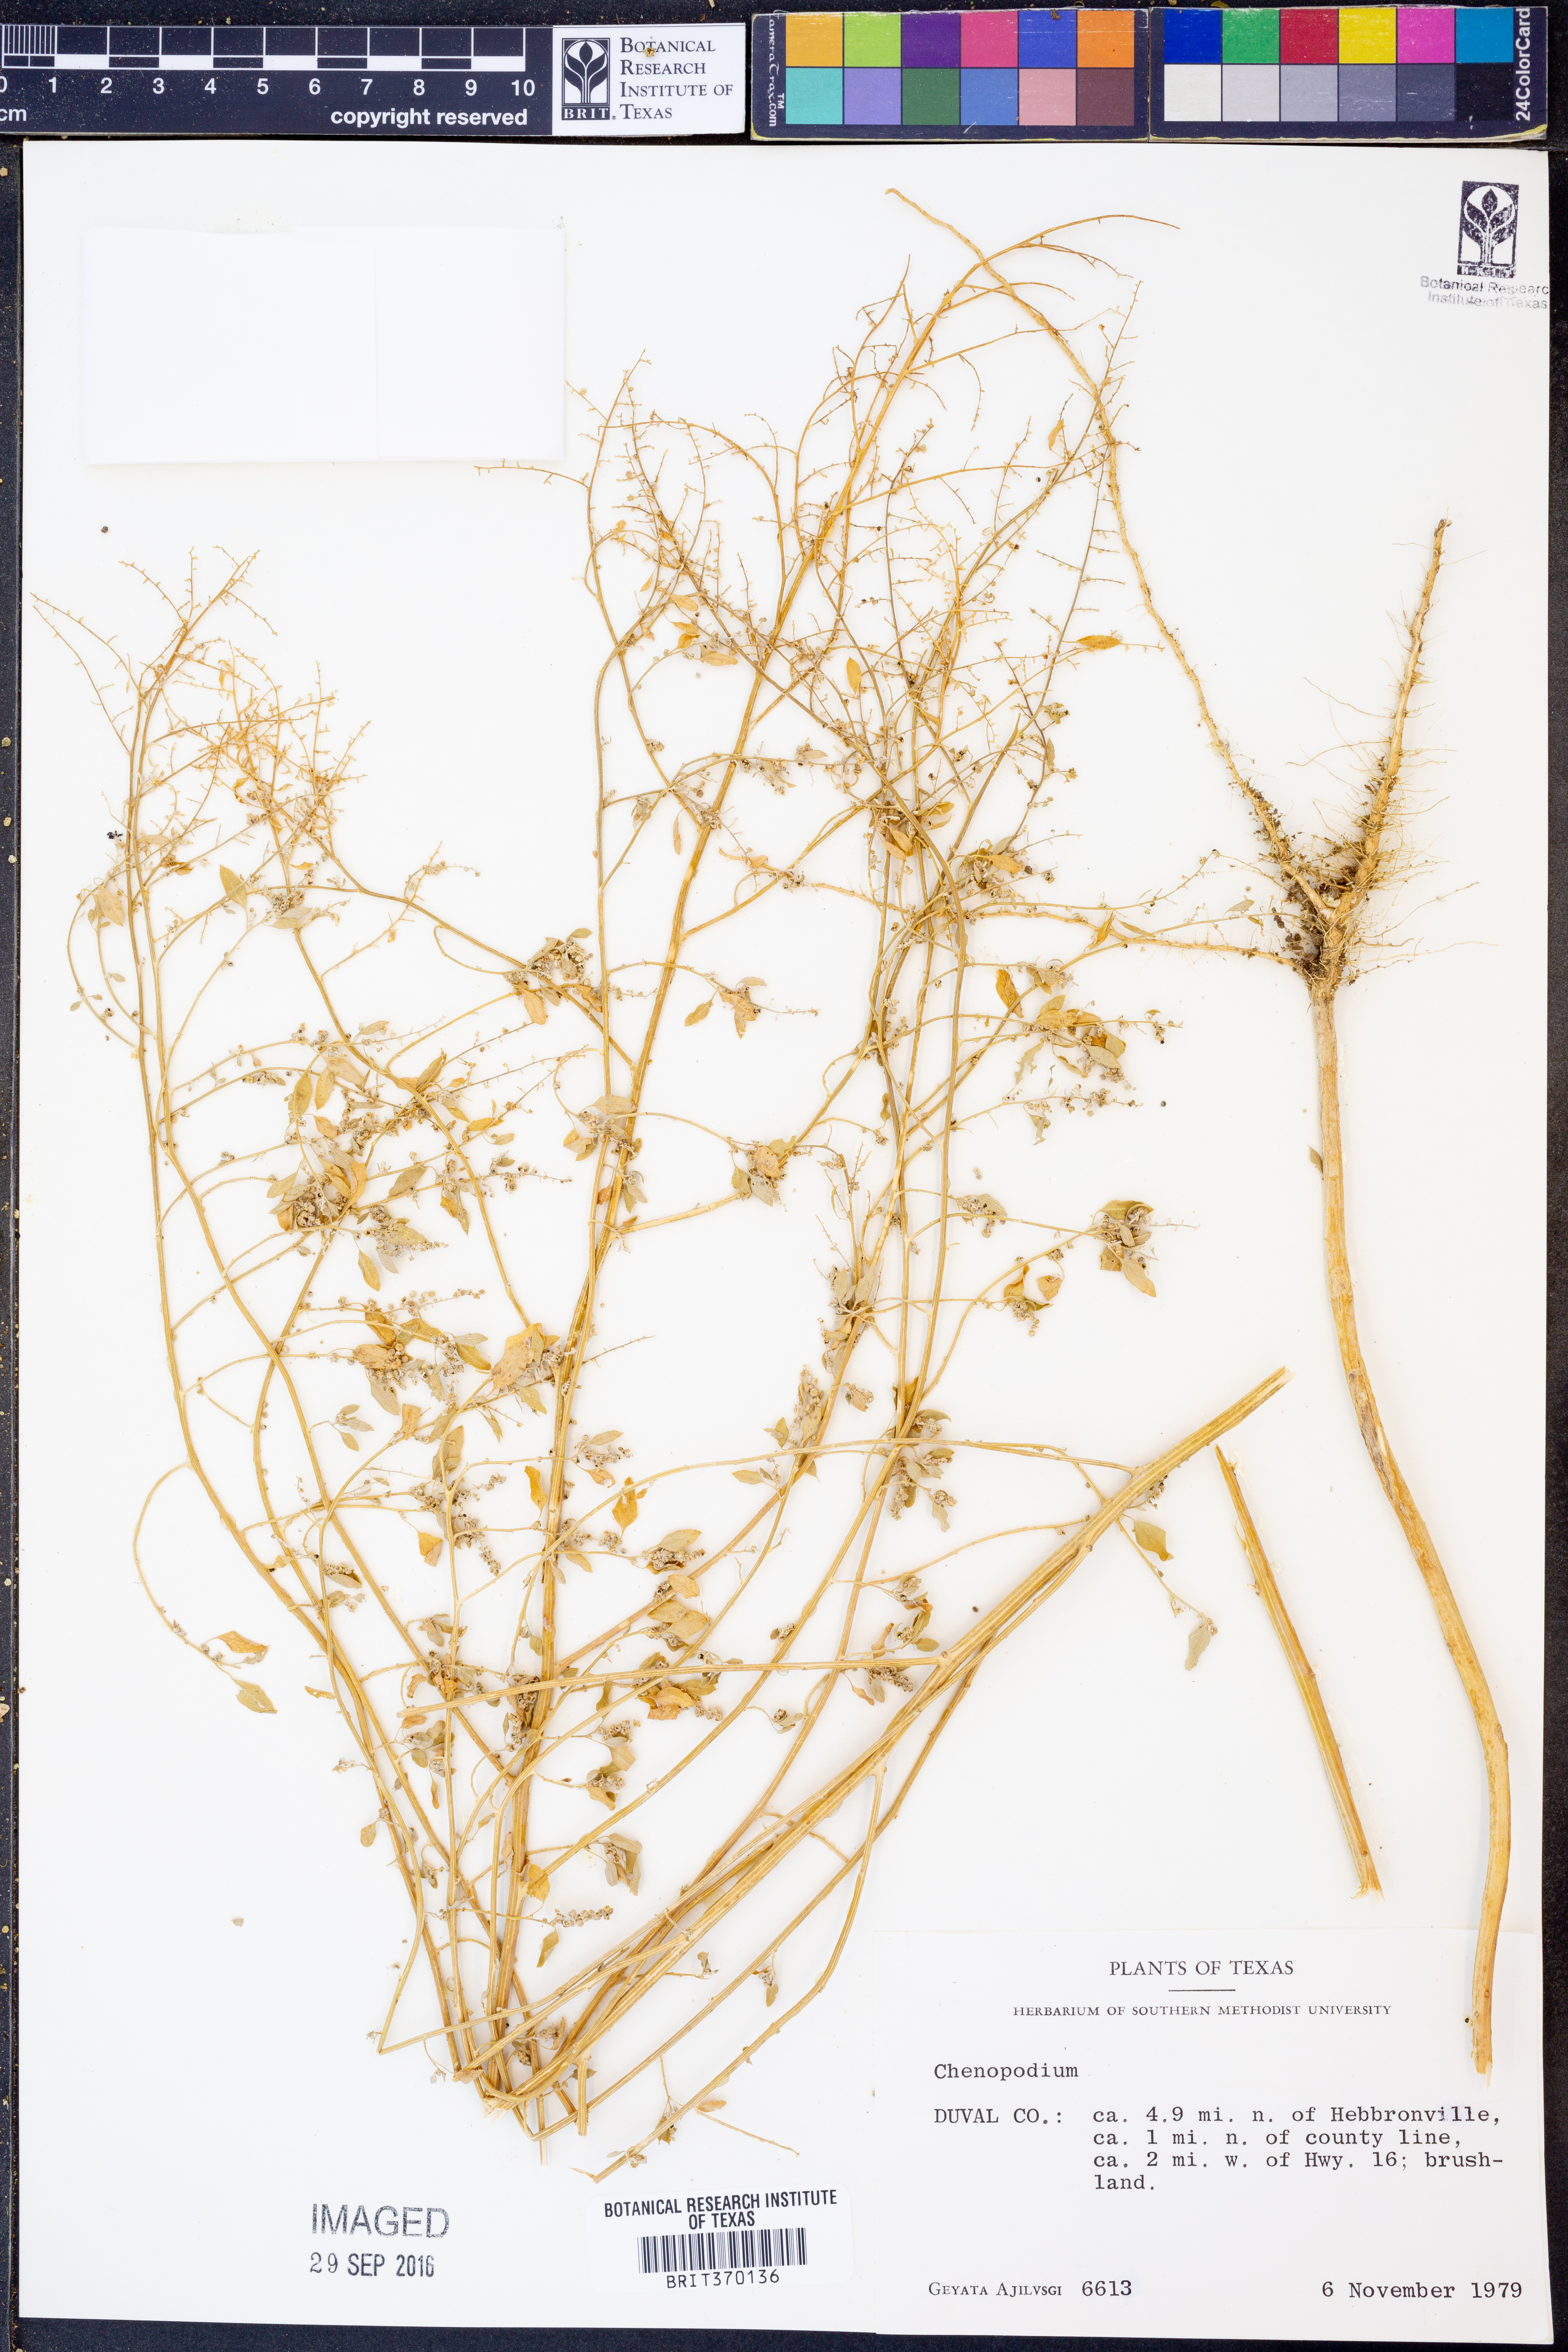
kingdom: Plantae
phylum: Tracheophyta
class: Magnoliopsida
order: Caryophyllales
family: Amaranthaceae
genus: Chenopodium
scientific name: Chenopodium
